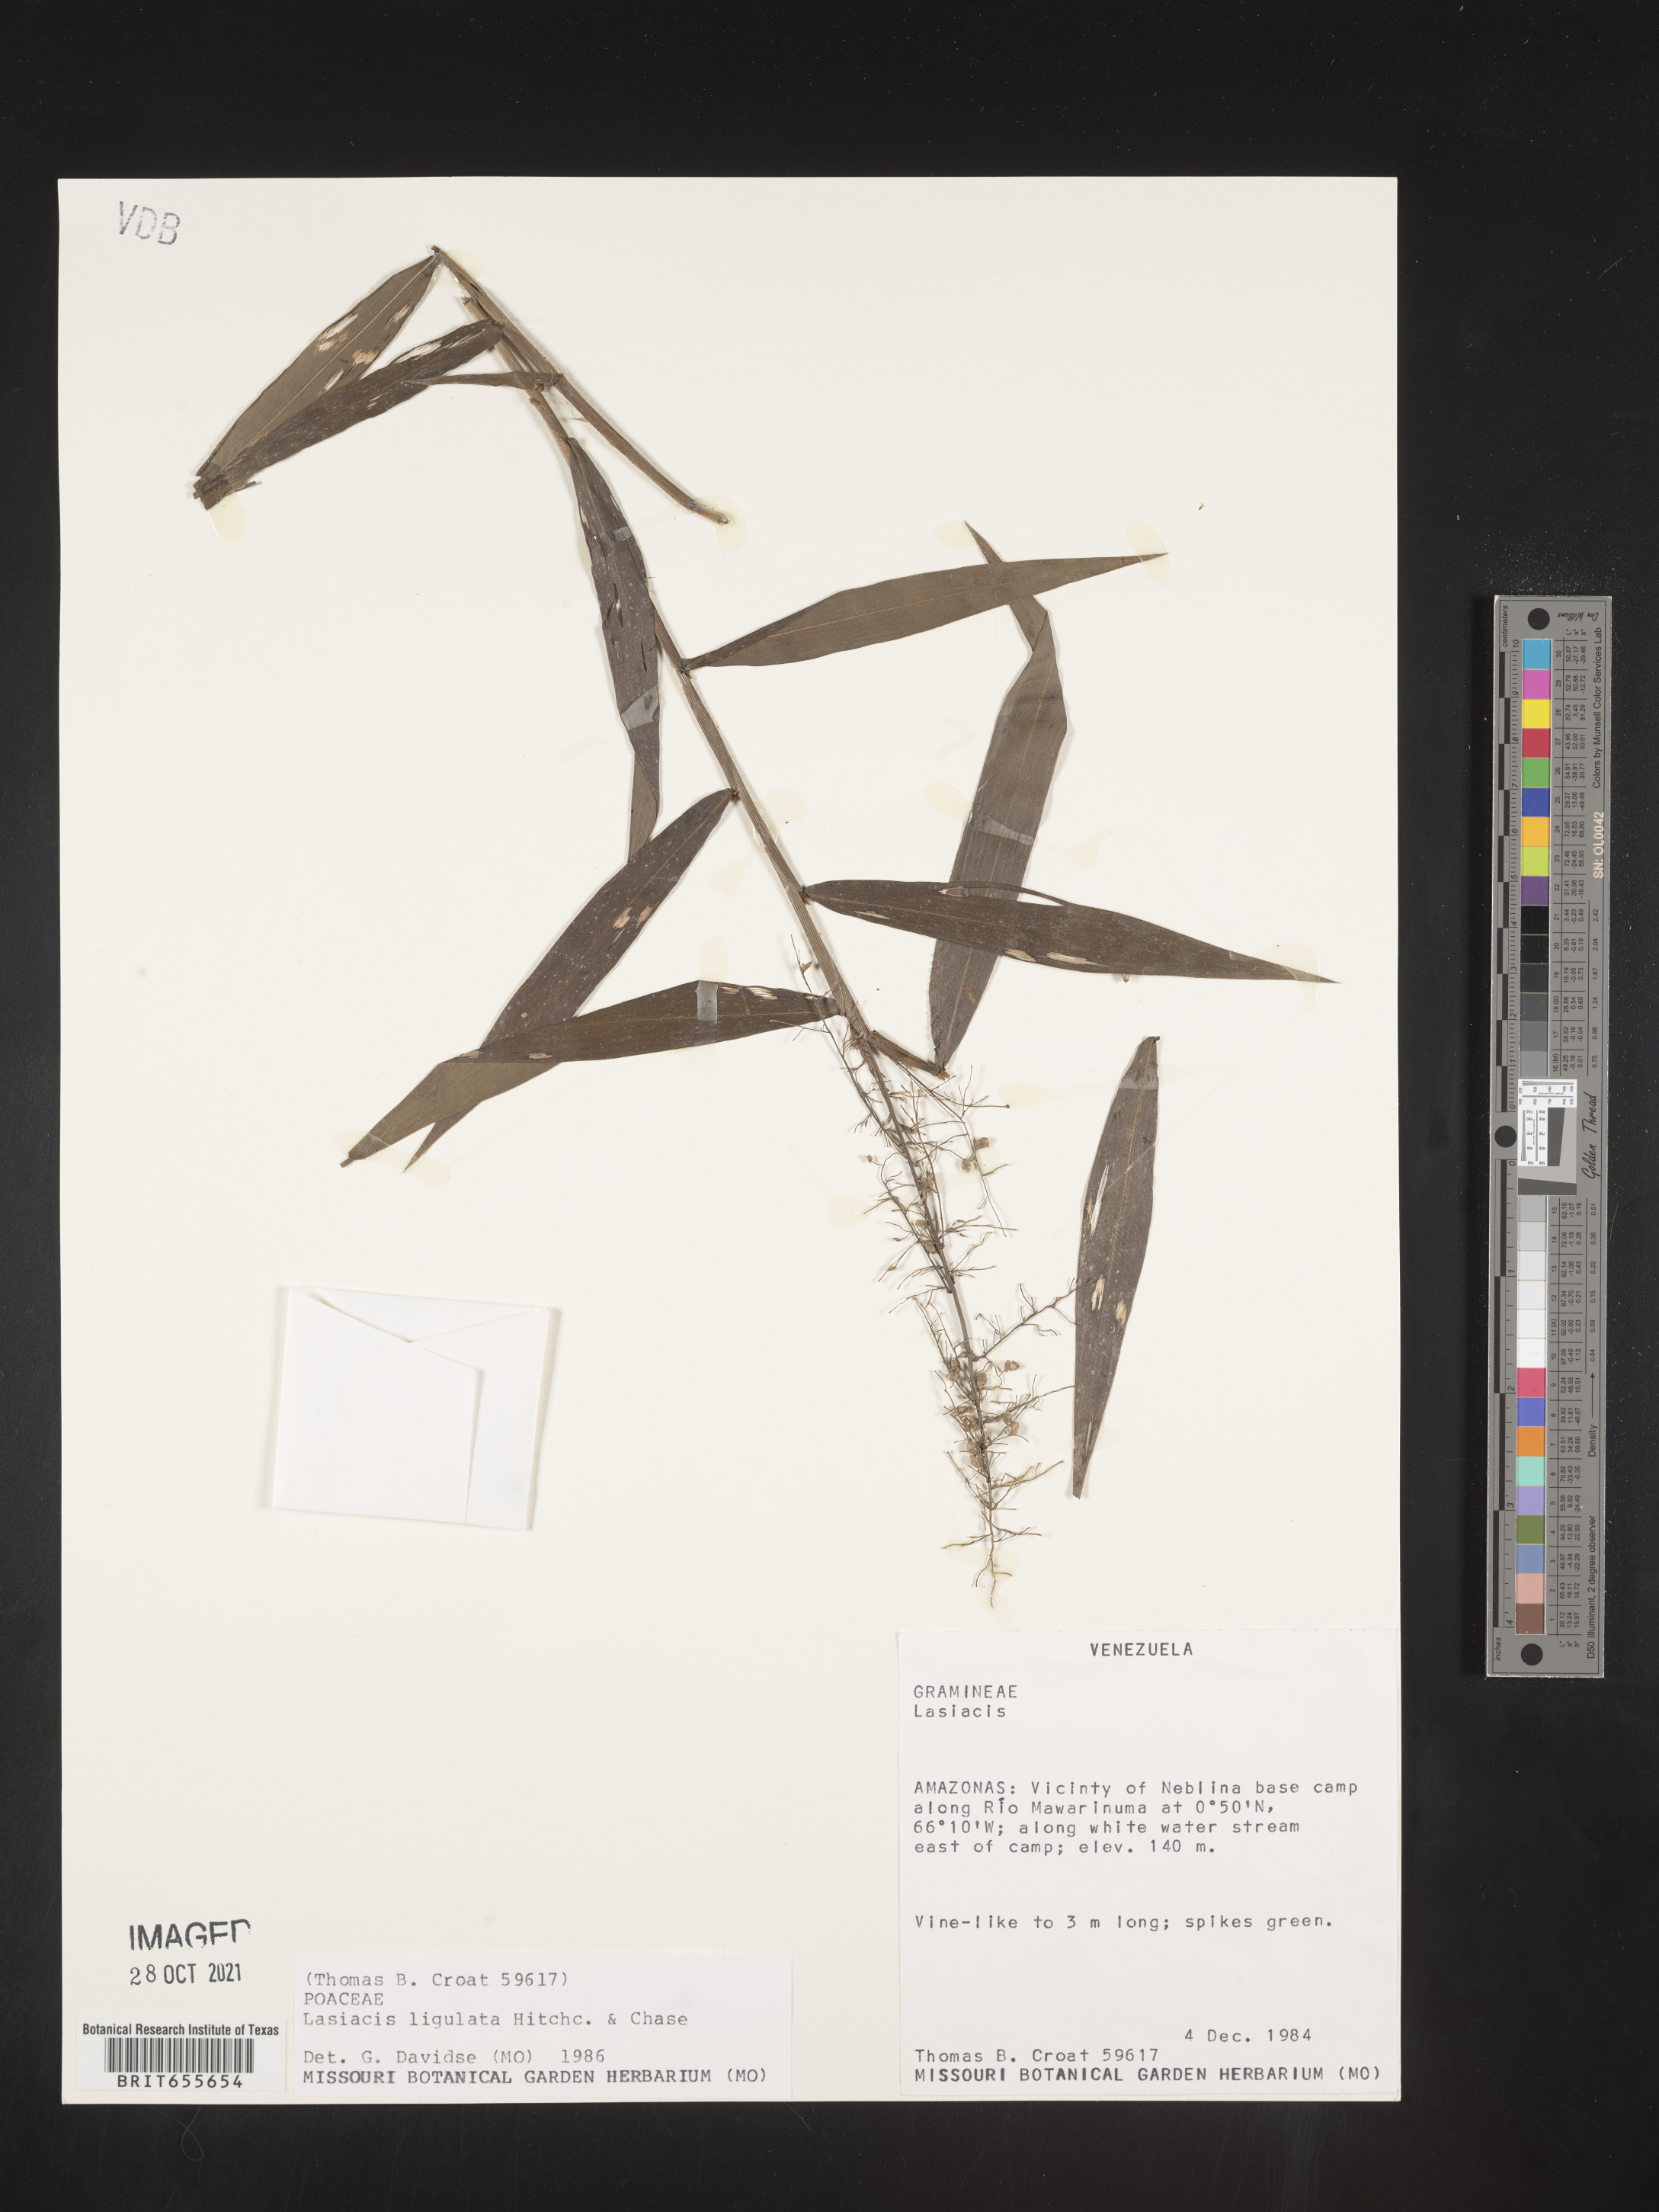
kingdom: Plantae
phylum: Tracheophyta
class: Liliopsida
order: Poales
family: Poaceae
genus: Lasiacis
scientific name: Lasiacis
